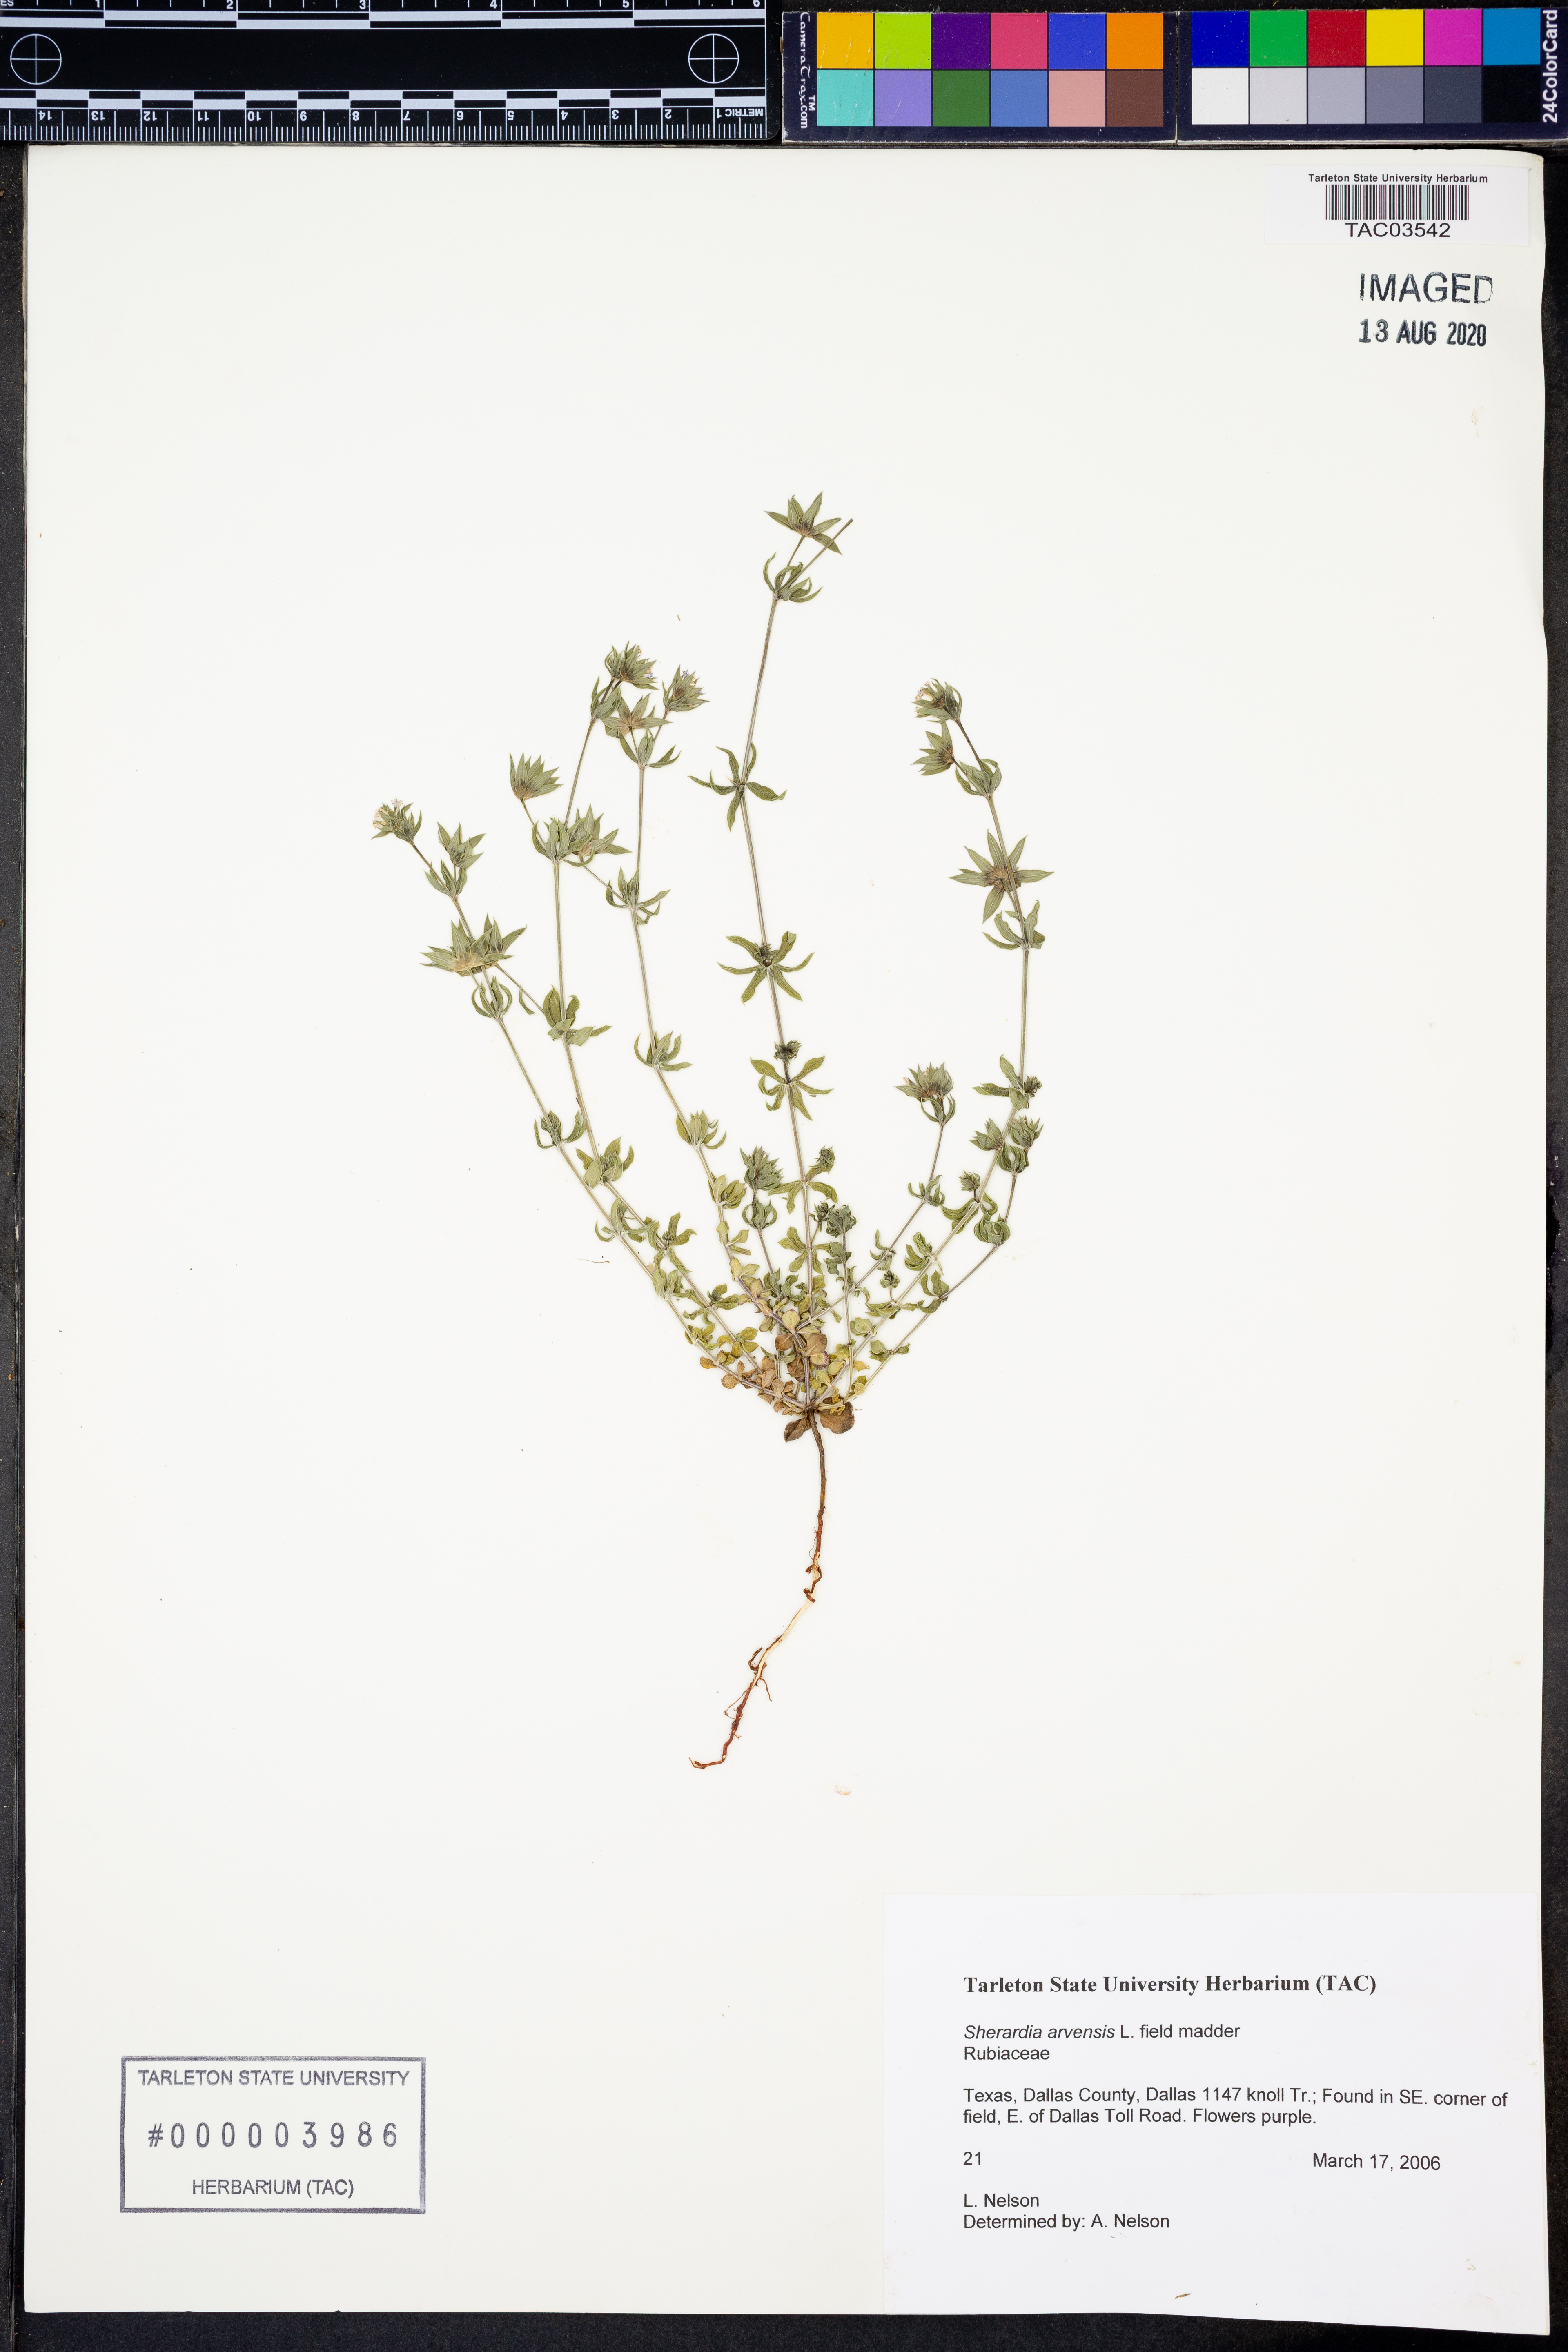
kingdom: Plantae
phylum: Tracheophyta
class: Magnoliopsida
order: Gentianales
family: Rubiaceae
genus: Sherardia
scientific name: Sherardia arvensis
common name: Field madder
